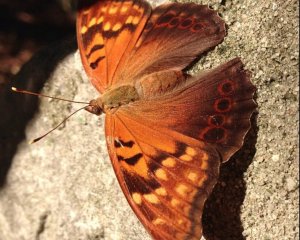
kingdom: Animalia
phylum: Arthropoda
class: Insecta
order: Lepidoptera
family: Nymphalidae
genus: Asterocampa
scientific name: Asterocampa clyton
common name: Tawny Emperor
